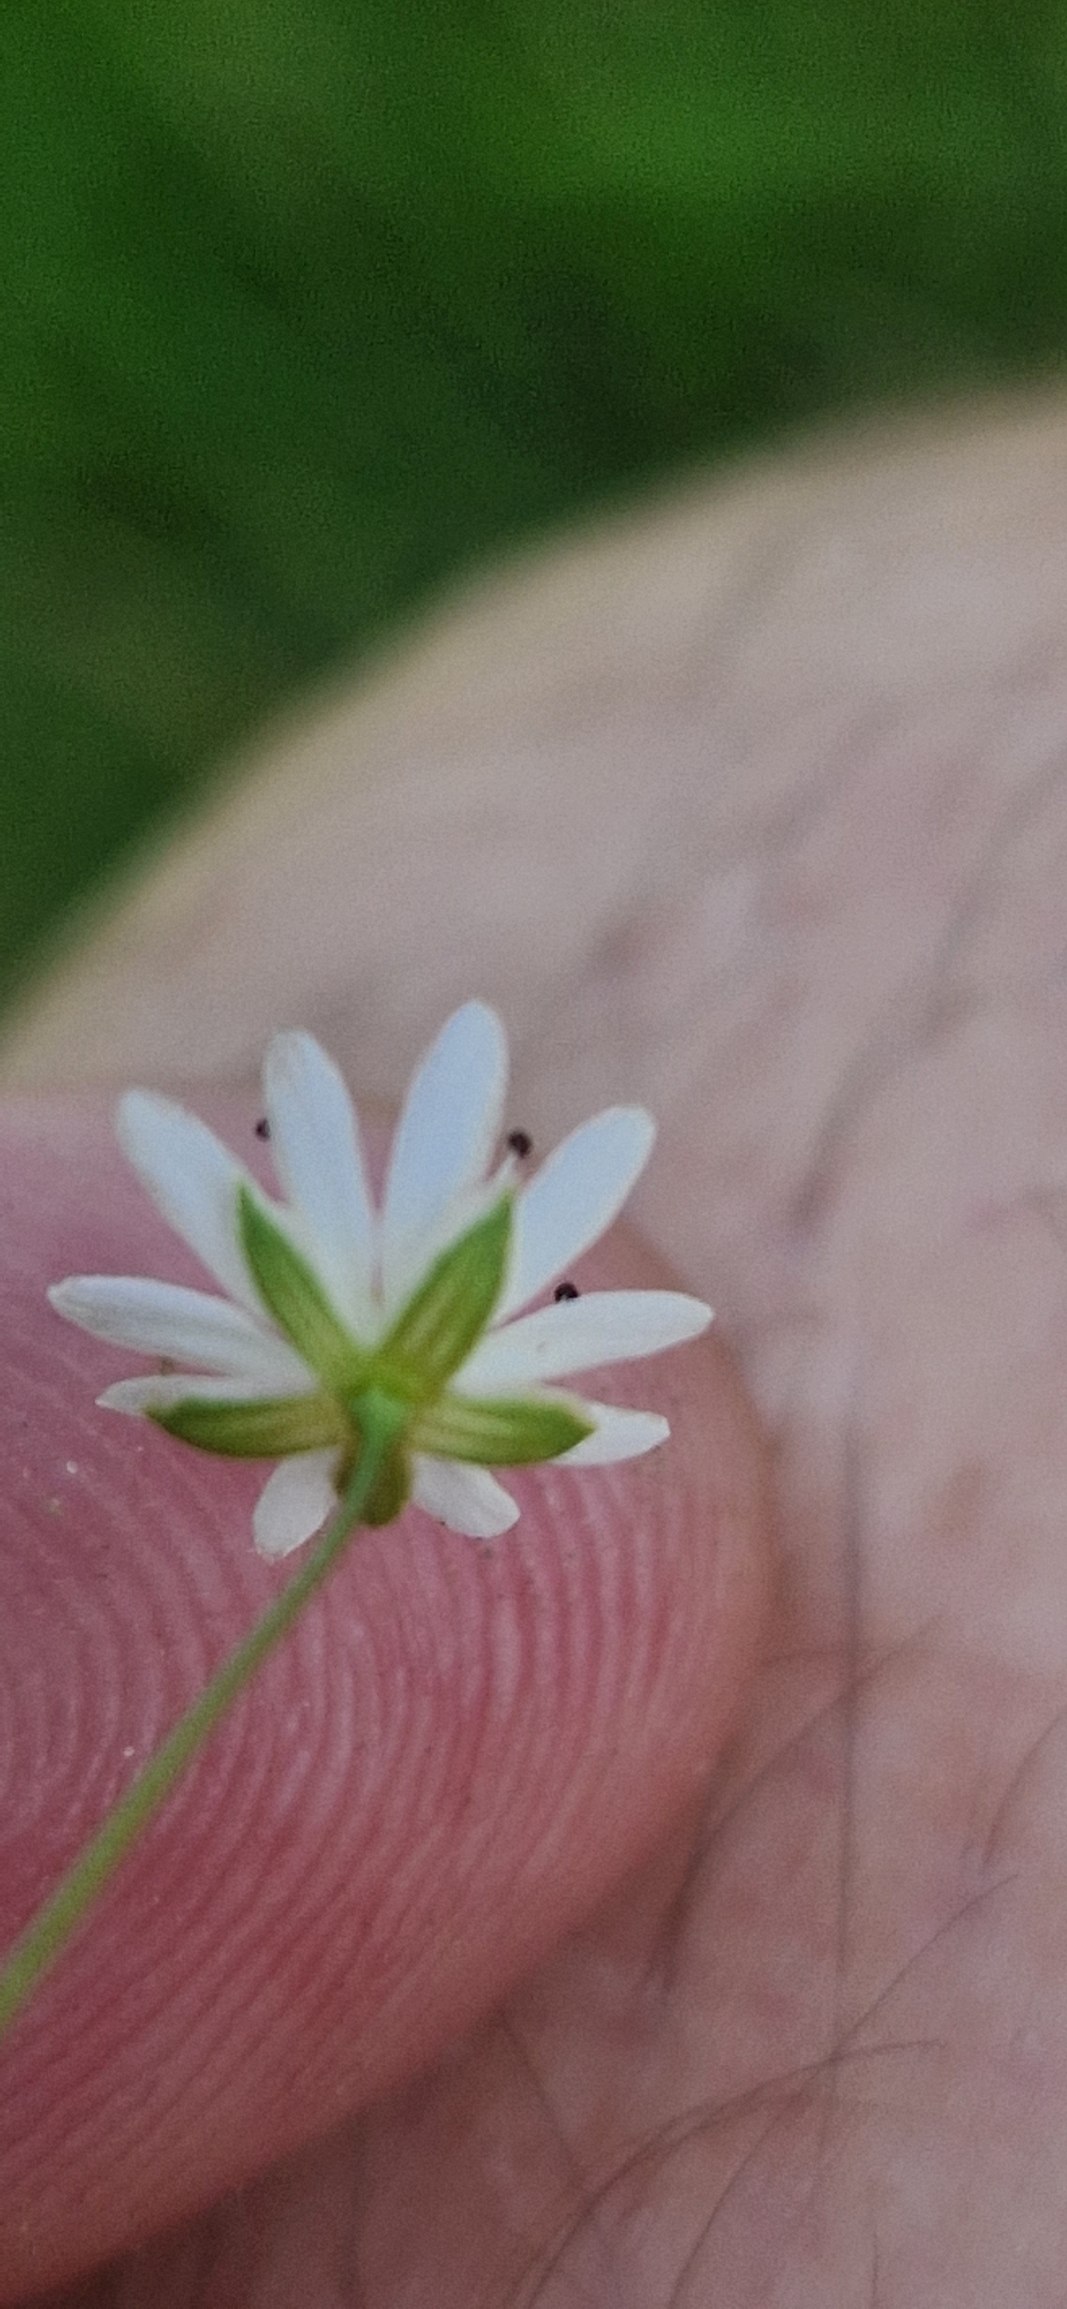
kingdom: Plantae
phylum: Tracheophyta
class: Magnoliopsida
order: Caryophyllales
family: Caryophyllaceae
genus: Stellaria
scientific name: Stellaria graminea
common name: Græsbladet fladstjerne
